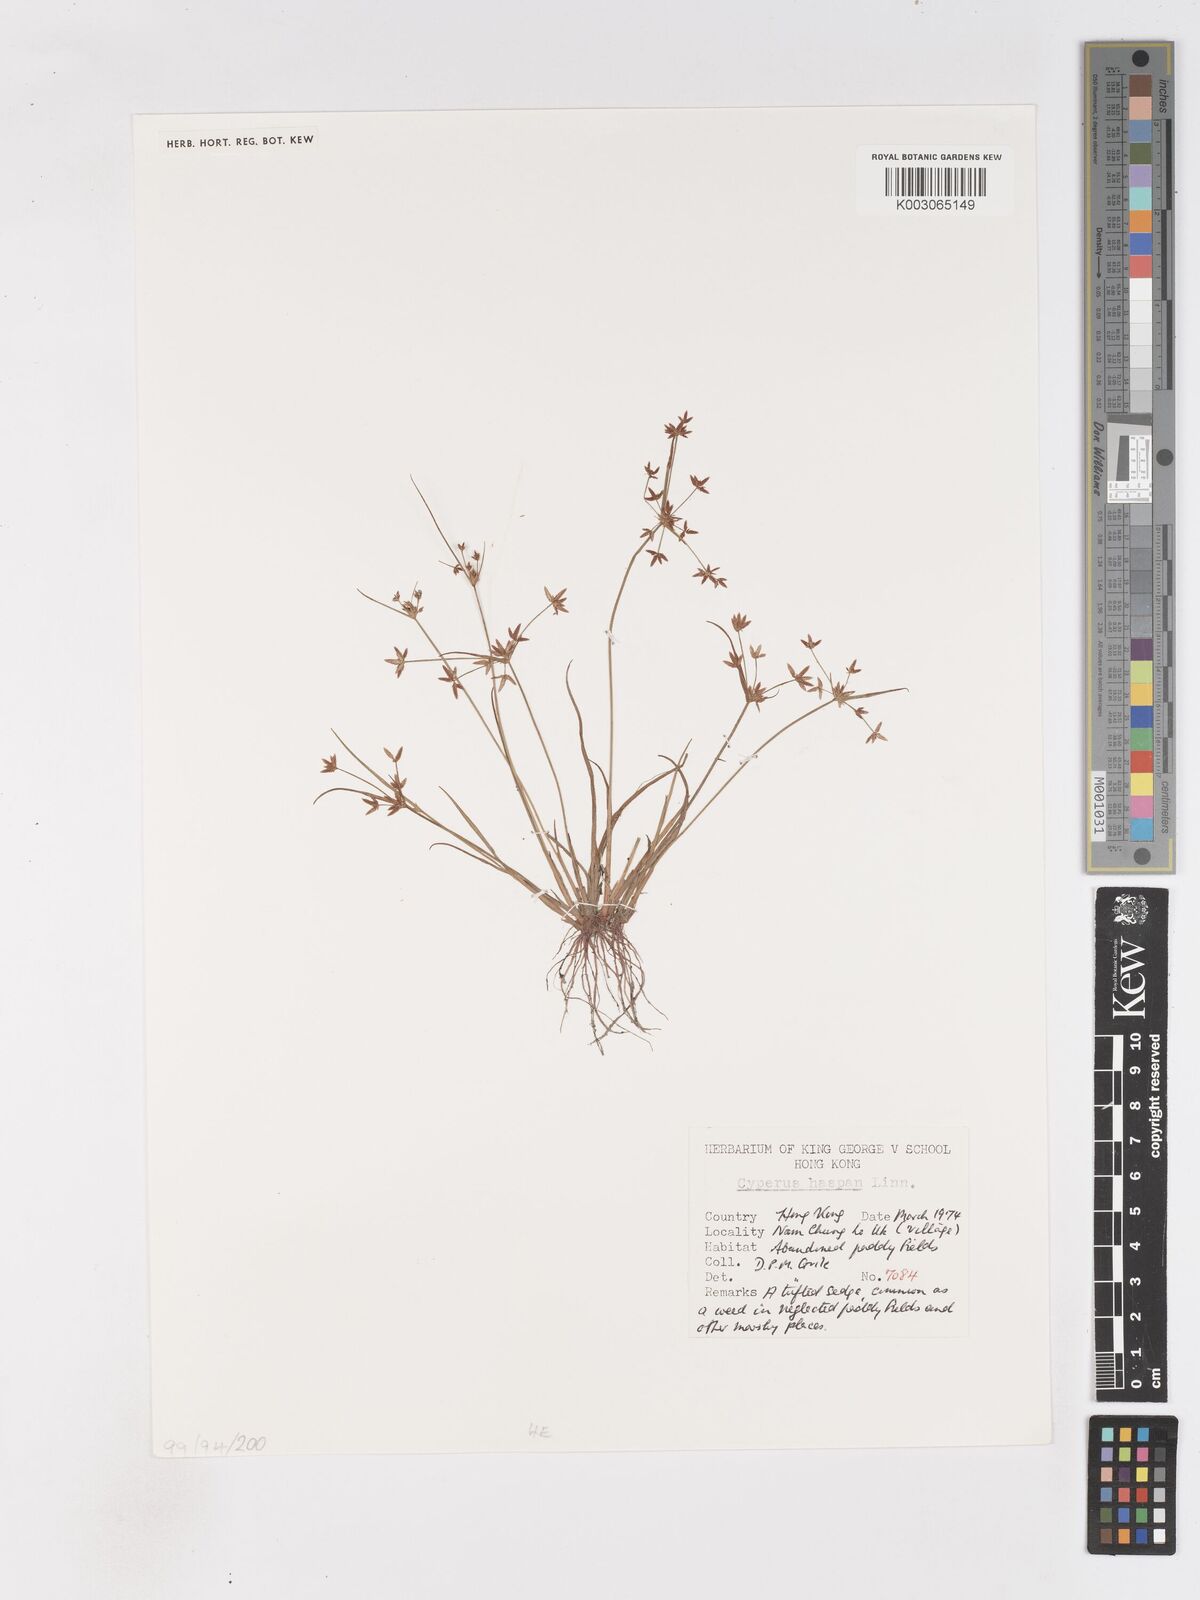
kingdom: Plantae
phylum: Tracheophyta
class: Liliopsida
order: Poales
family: Cyperaceae
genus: Cyperus
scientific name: Cyperus haspan
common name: Haspan flatsedge
